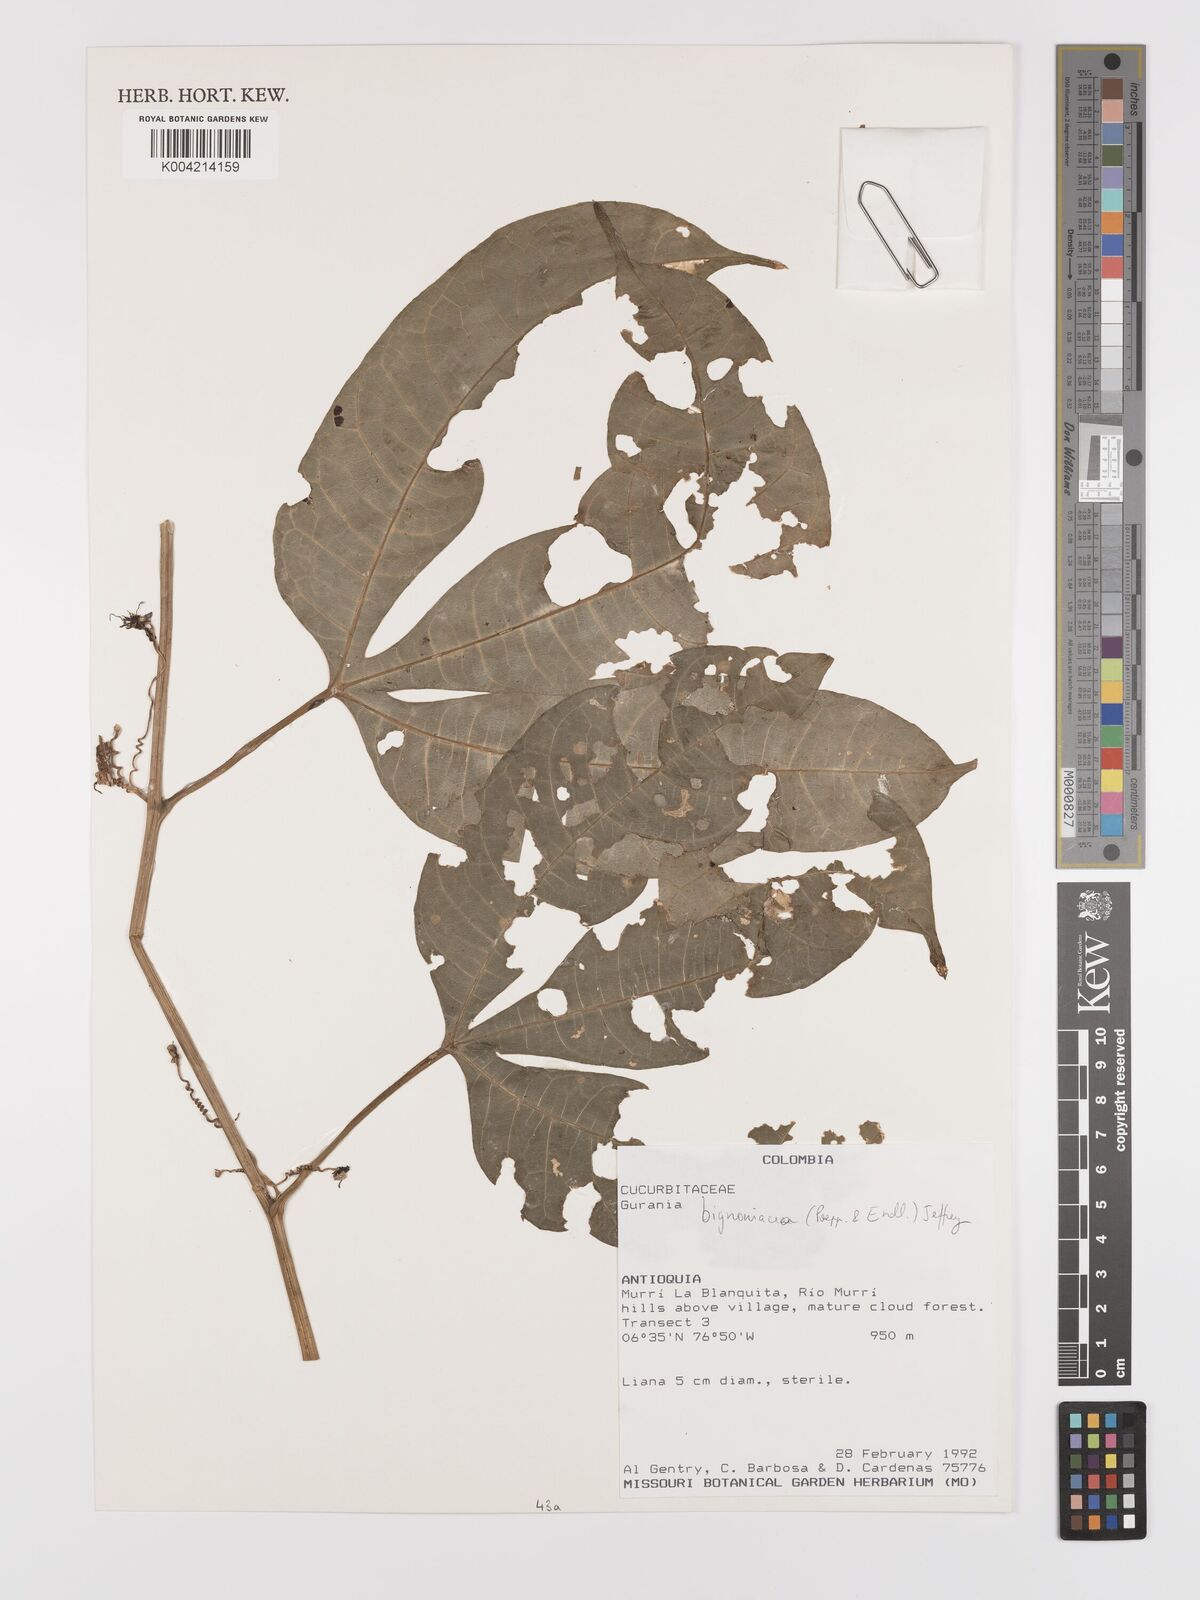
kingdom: Plantae
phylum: Tracheophyta
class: Magnoliopsida
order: Cucurbitales
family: Cucurbitaceae
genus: Gurania
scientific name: Gurania bignoniacea
